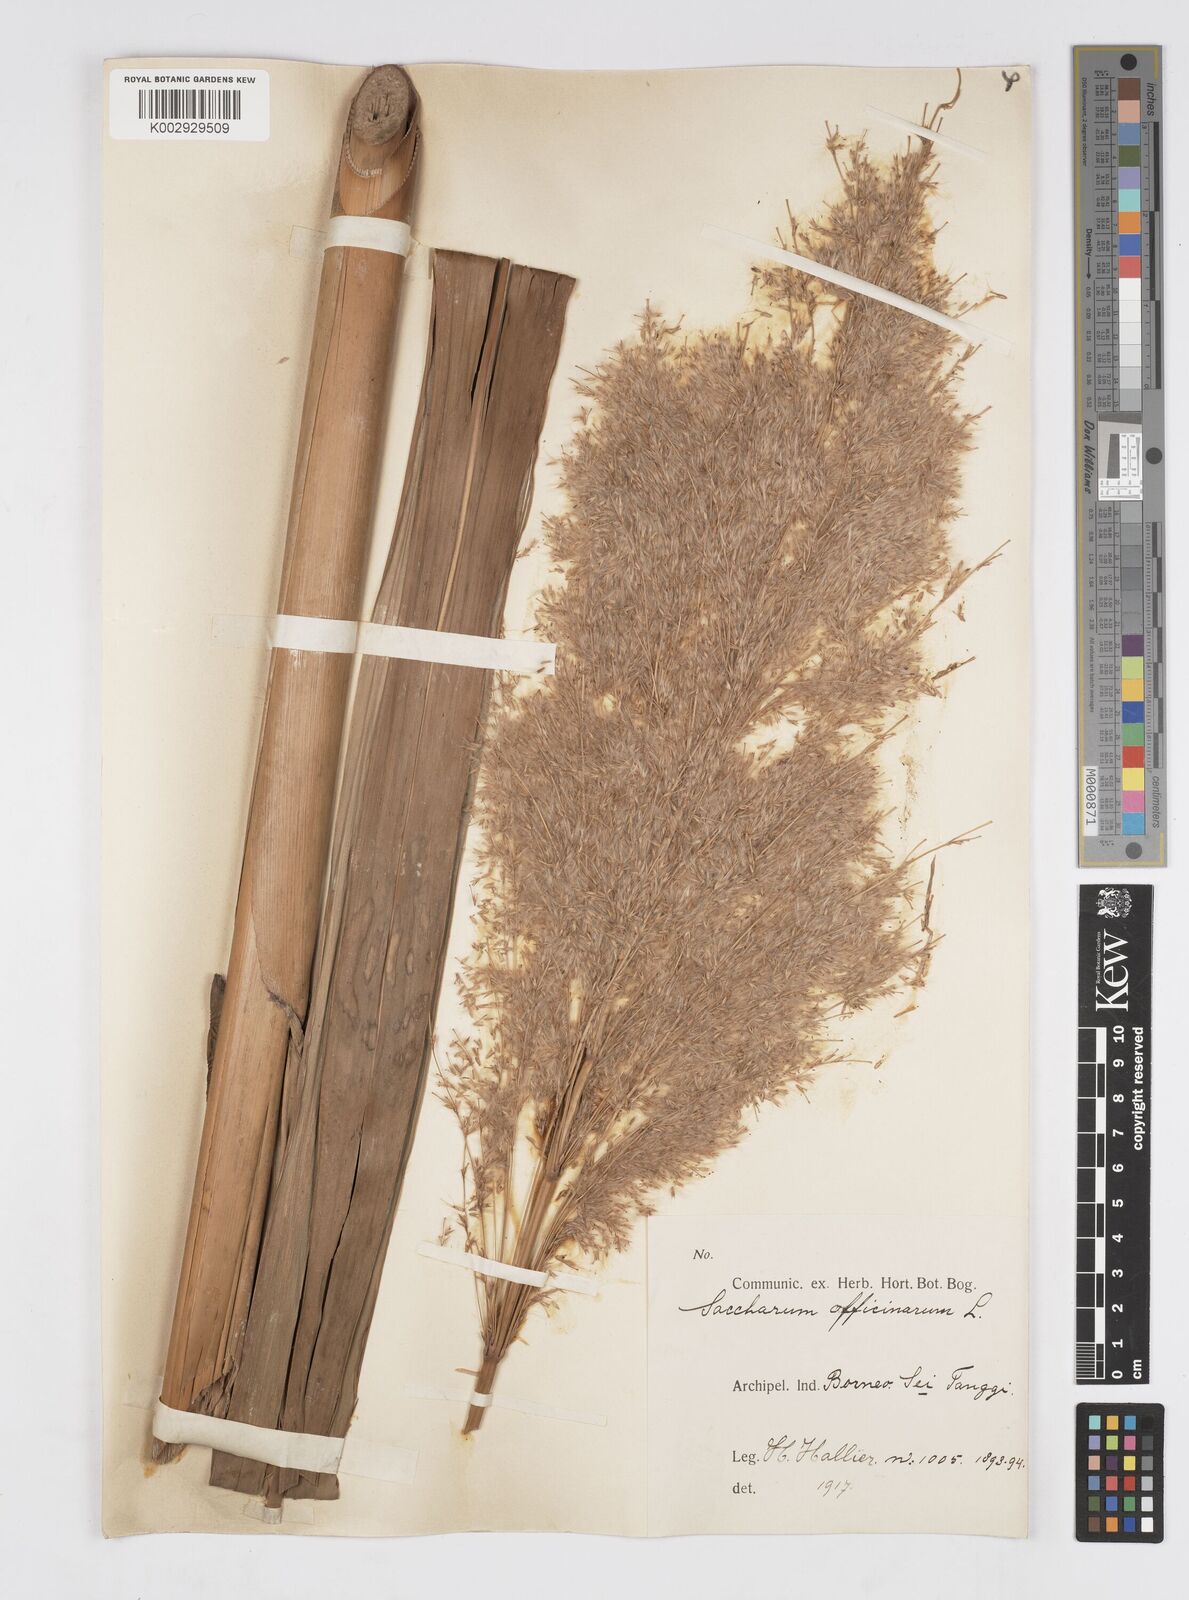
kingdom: Plantae
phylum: Tracheophyta
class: Liliopsida
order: Poales
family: Poaceae
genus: Saccharum
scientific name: Saccharum officinarum
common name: Sugarcane
